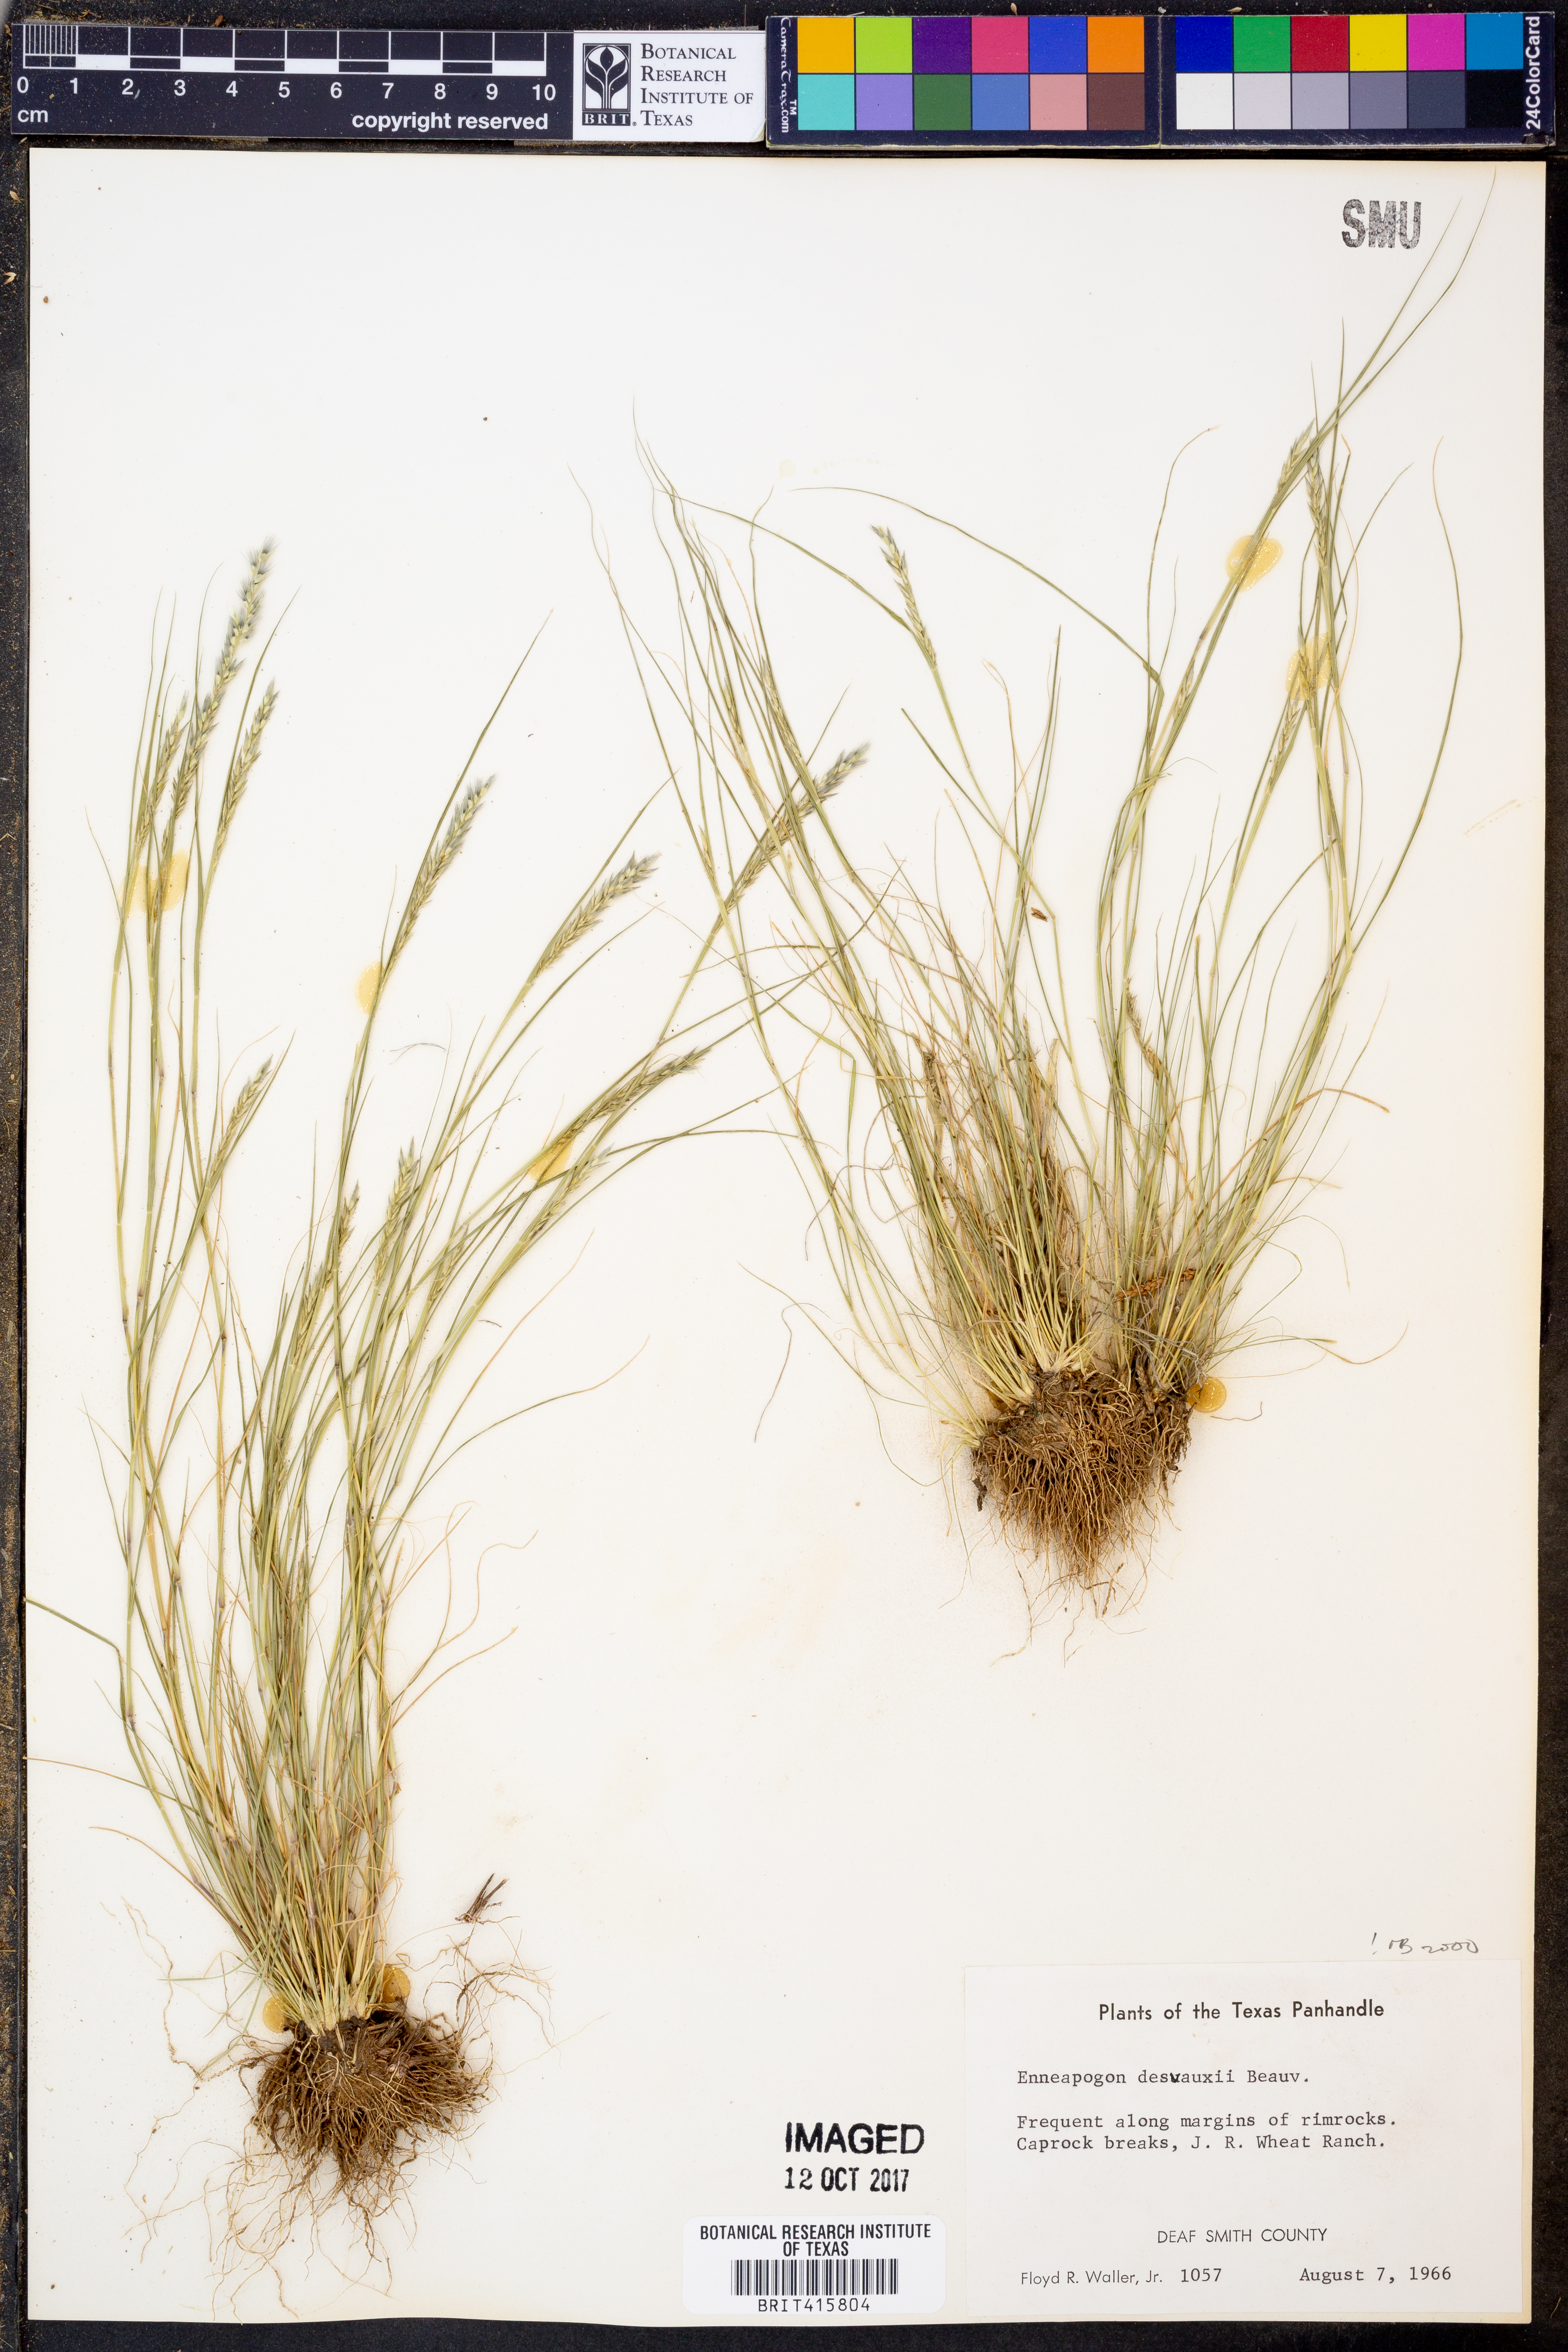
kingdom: Plantae
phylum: Tracheophyta
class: Liliopsida
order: Poales
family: Poaceae
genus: Enneapogon
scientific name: Enneapogon desvauxii
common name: Feather pappus grass
